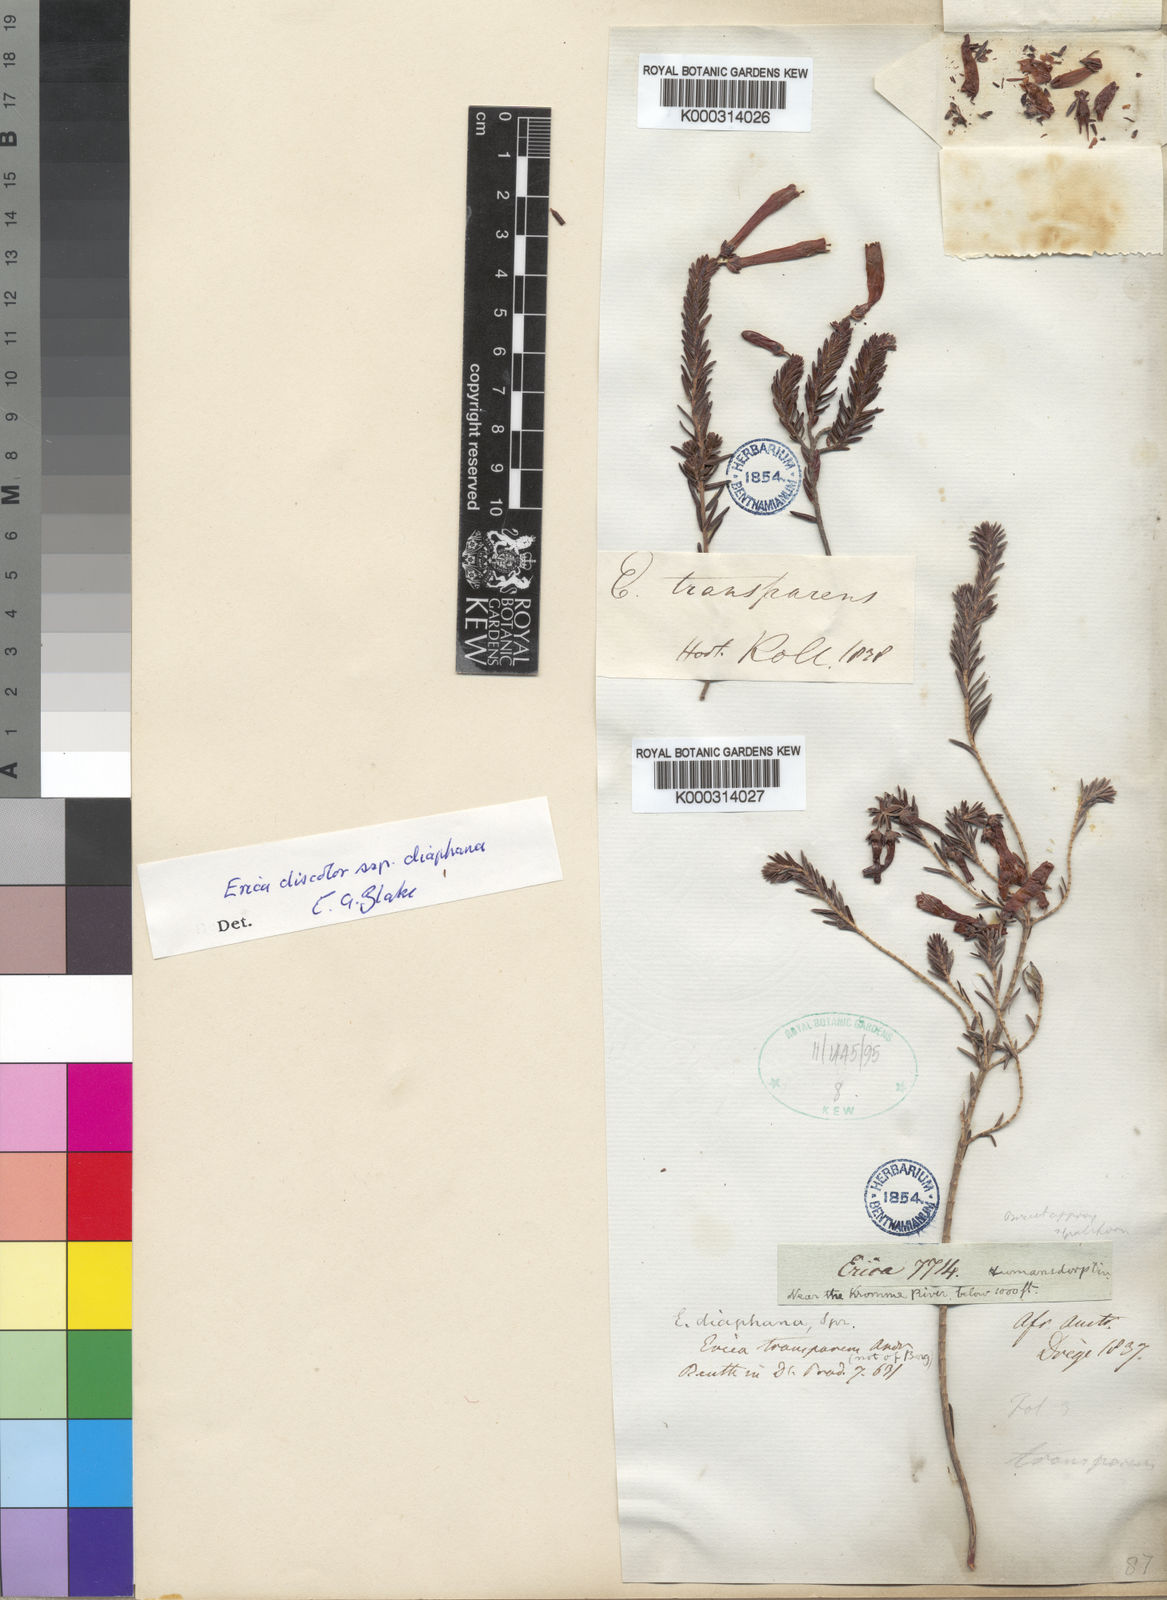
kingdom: Plantae
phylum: Tracheophyta
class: Magnoliopsida
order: Ericales
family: Ericaceae
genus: Erica
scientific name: Erica
